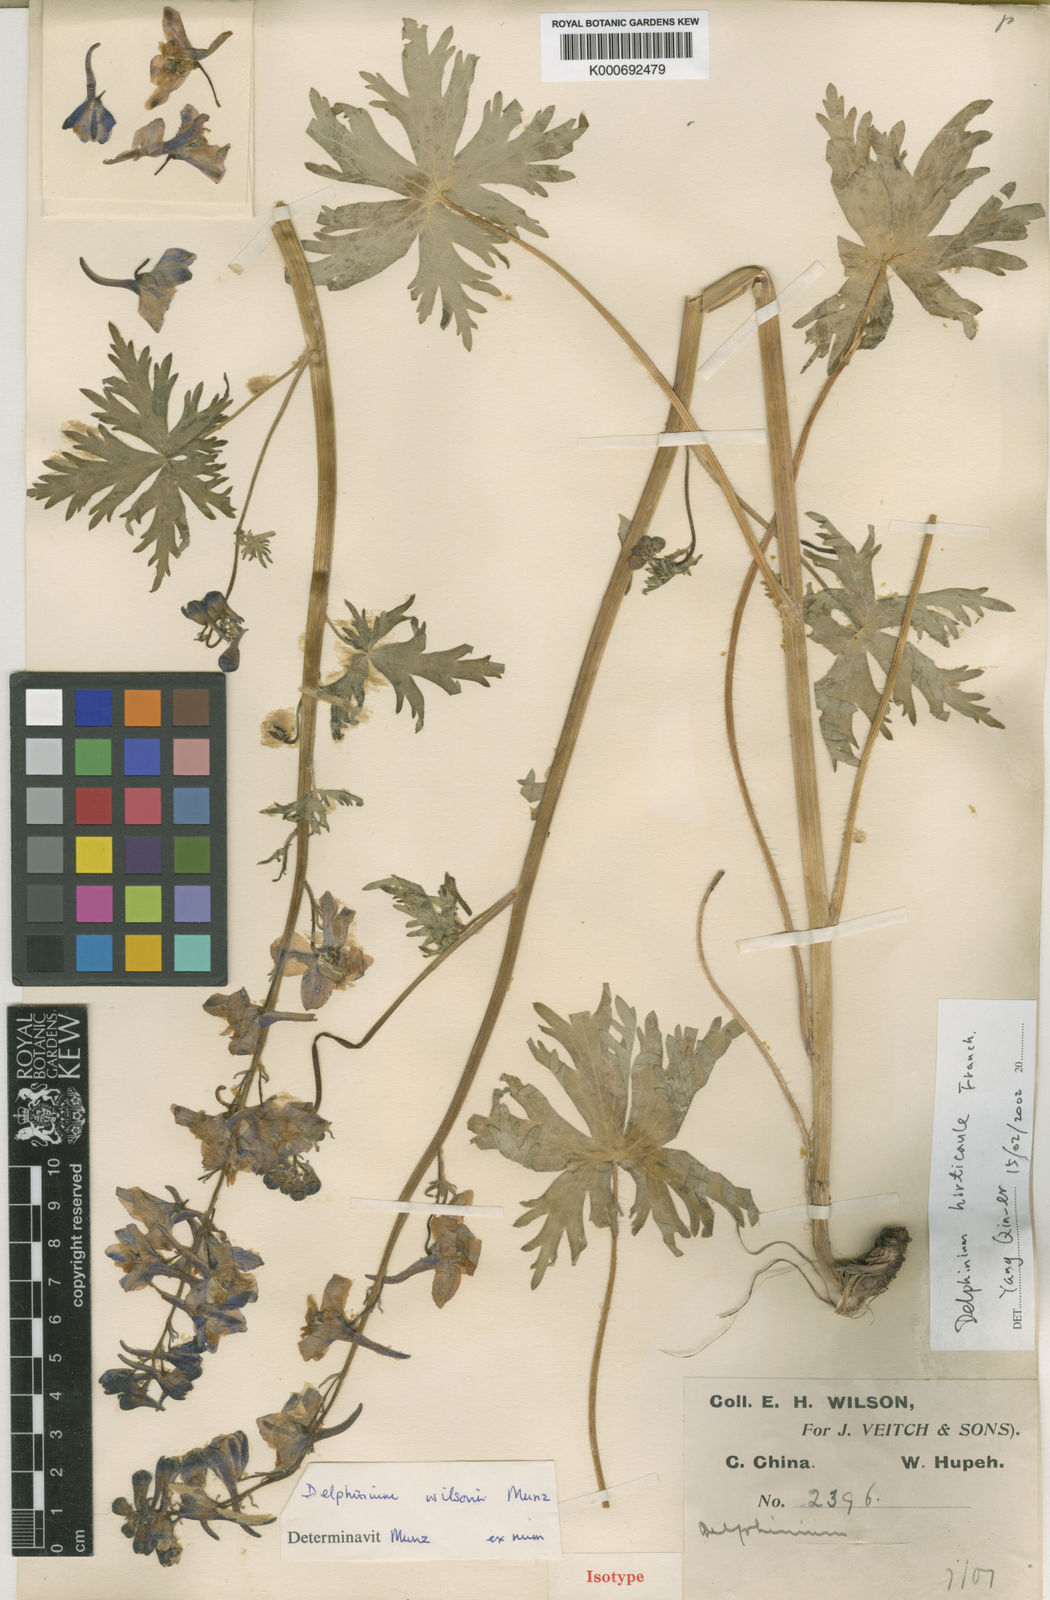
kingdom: Plantae
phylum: Tracheophyta
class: Magnoliopsida
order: Ranunculales
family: Ranunculaceae
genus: Delphinium
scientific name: Delphinium hirticaule
